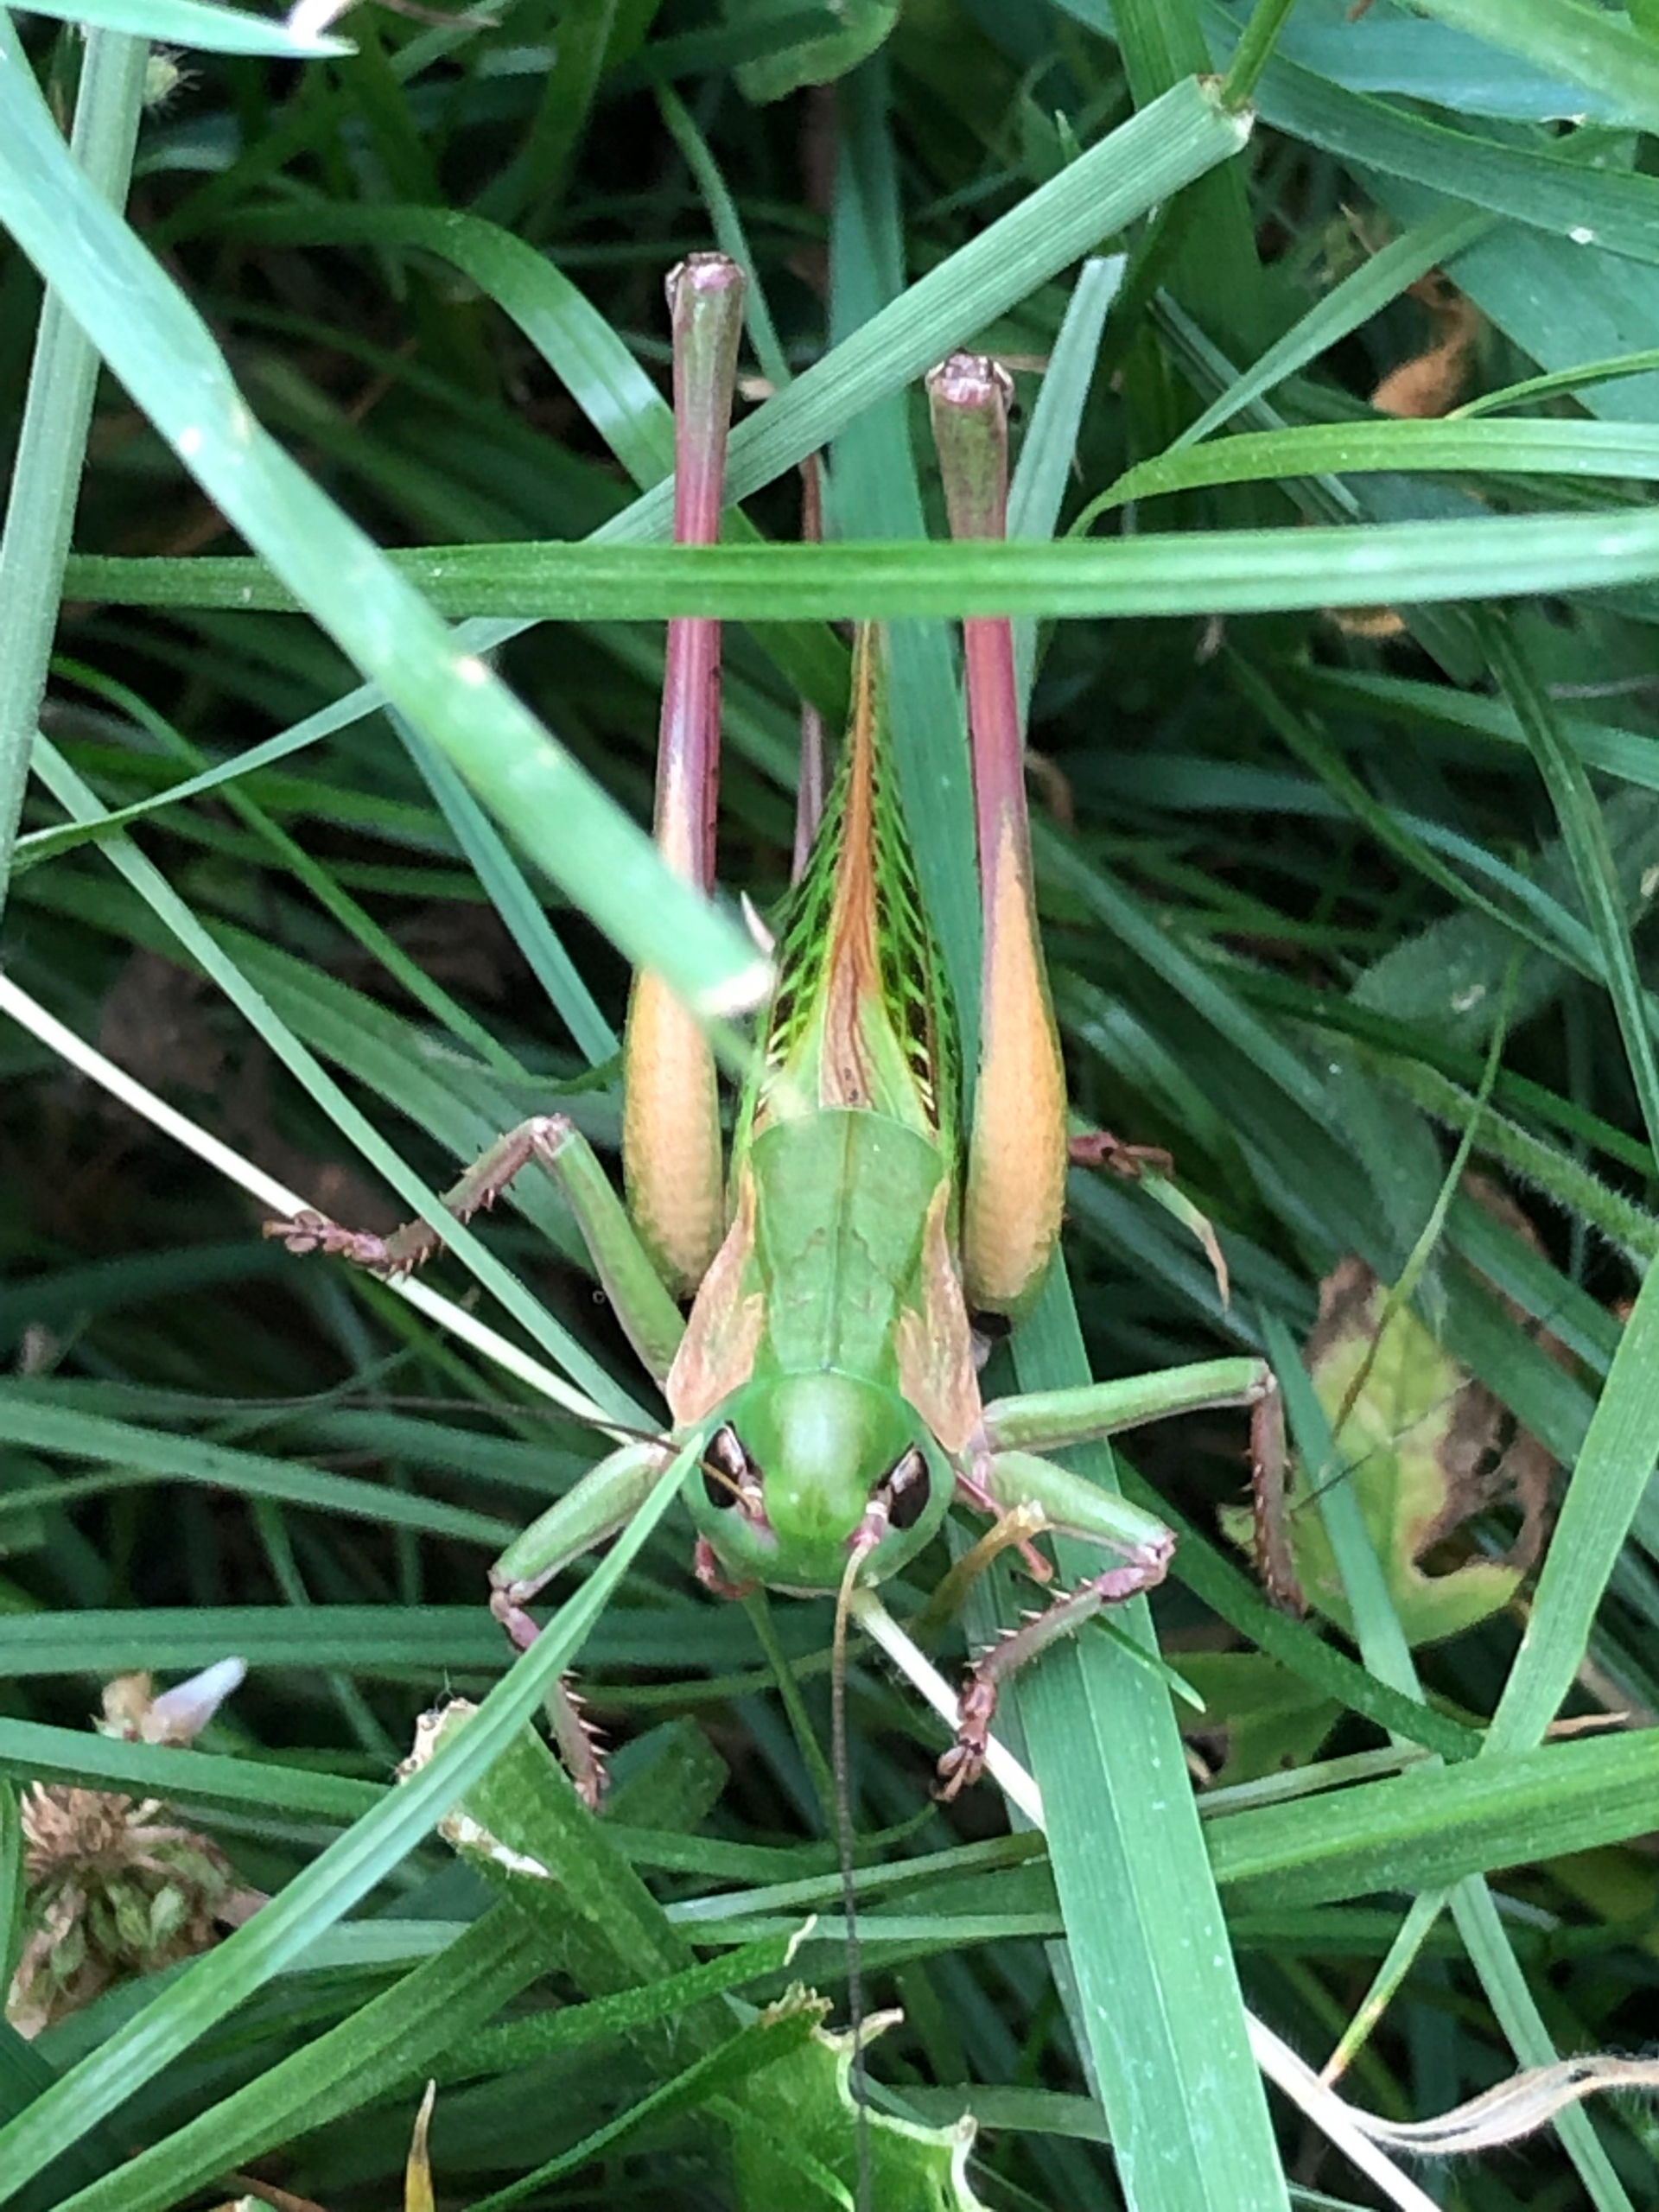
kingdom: Animalia
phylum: Arthropoda
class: Insecta
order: Orthoptera
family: Tettigoniidae
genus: Decticus
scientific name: Decticus verrucivorus
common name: Vortebider
